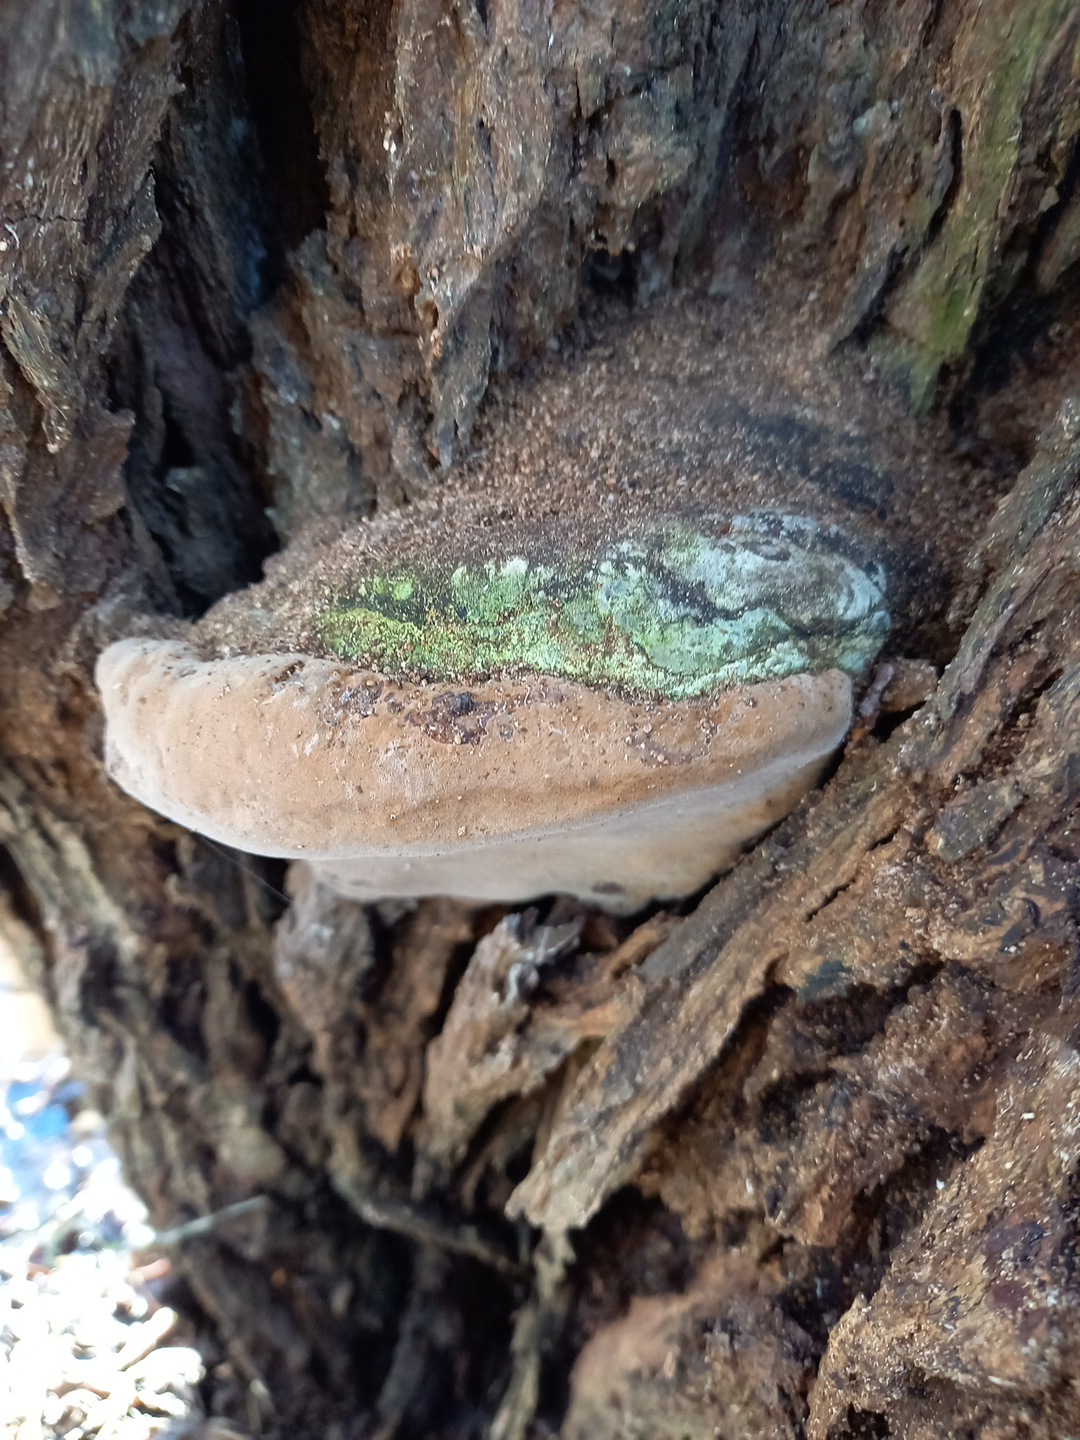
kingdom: Fungi
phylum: Basidiomycota
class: Agaricomycetes
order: Hymenochaetales
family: Hymenochaetaceae
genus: Phellinus
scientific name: Phellinus igniarius
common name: almindelig ildporesvamp
